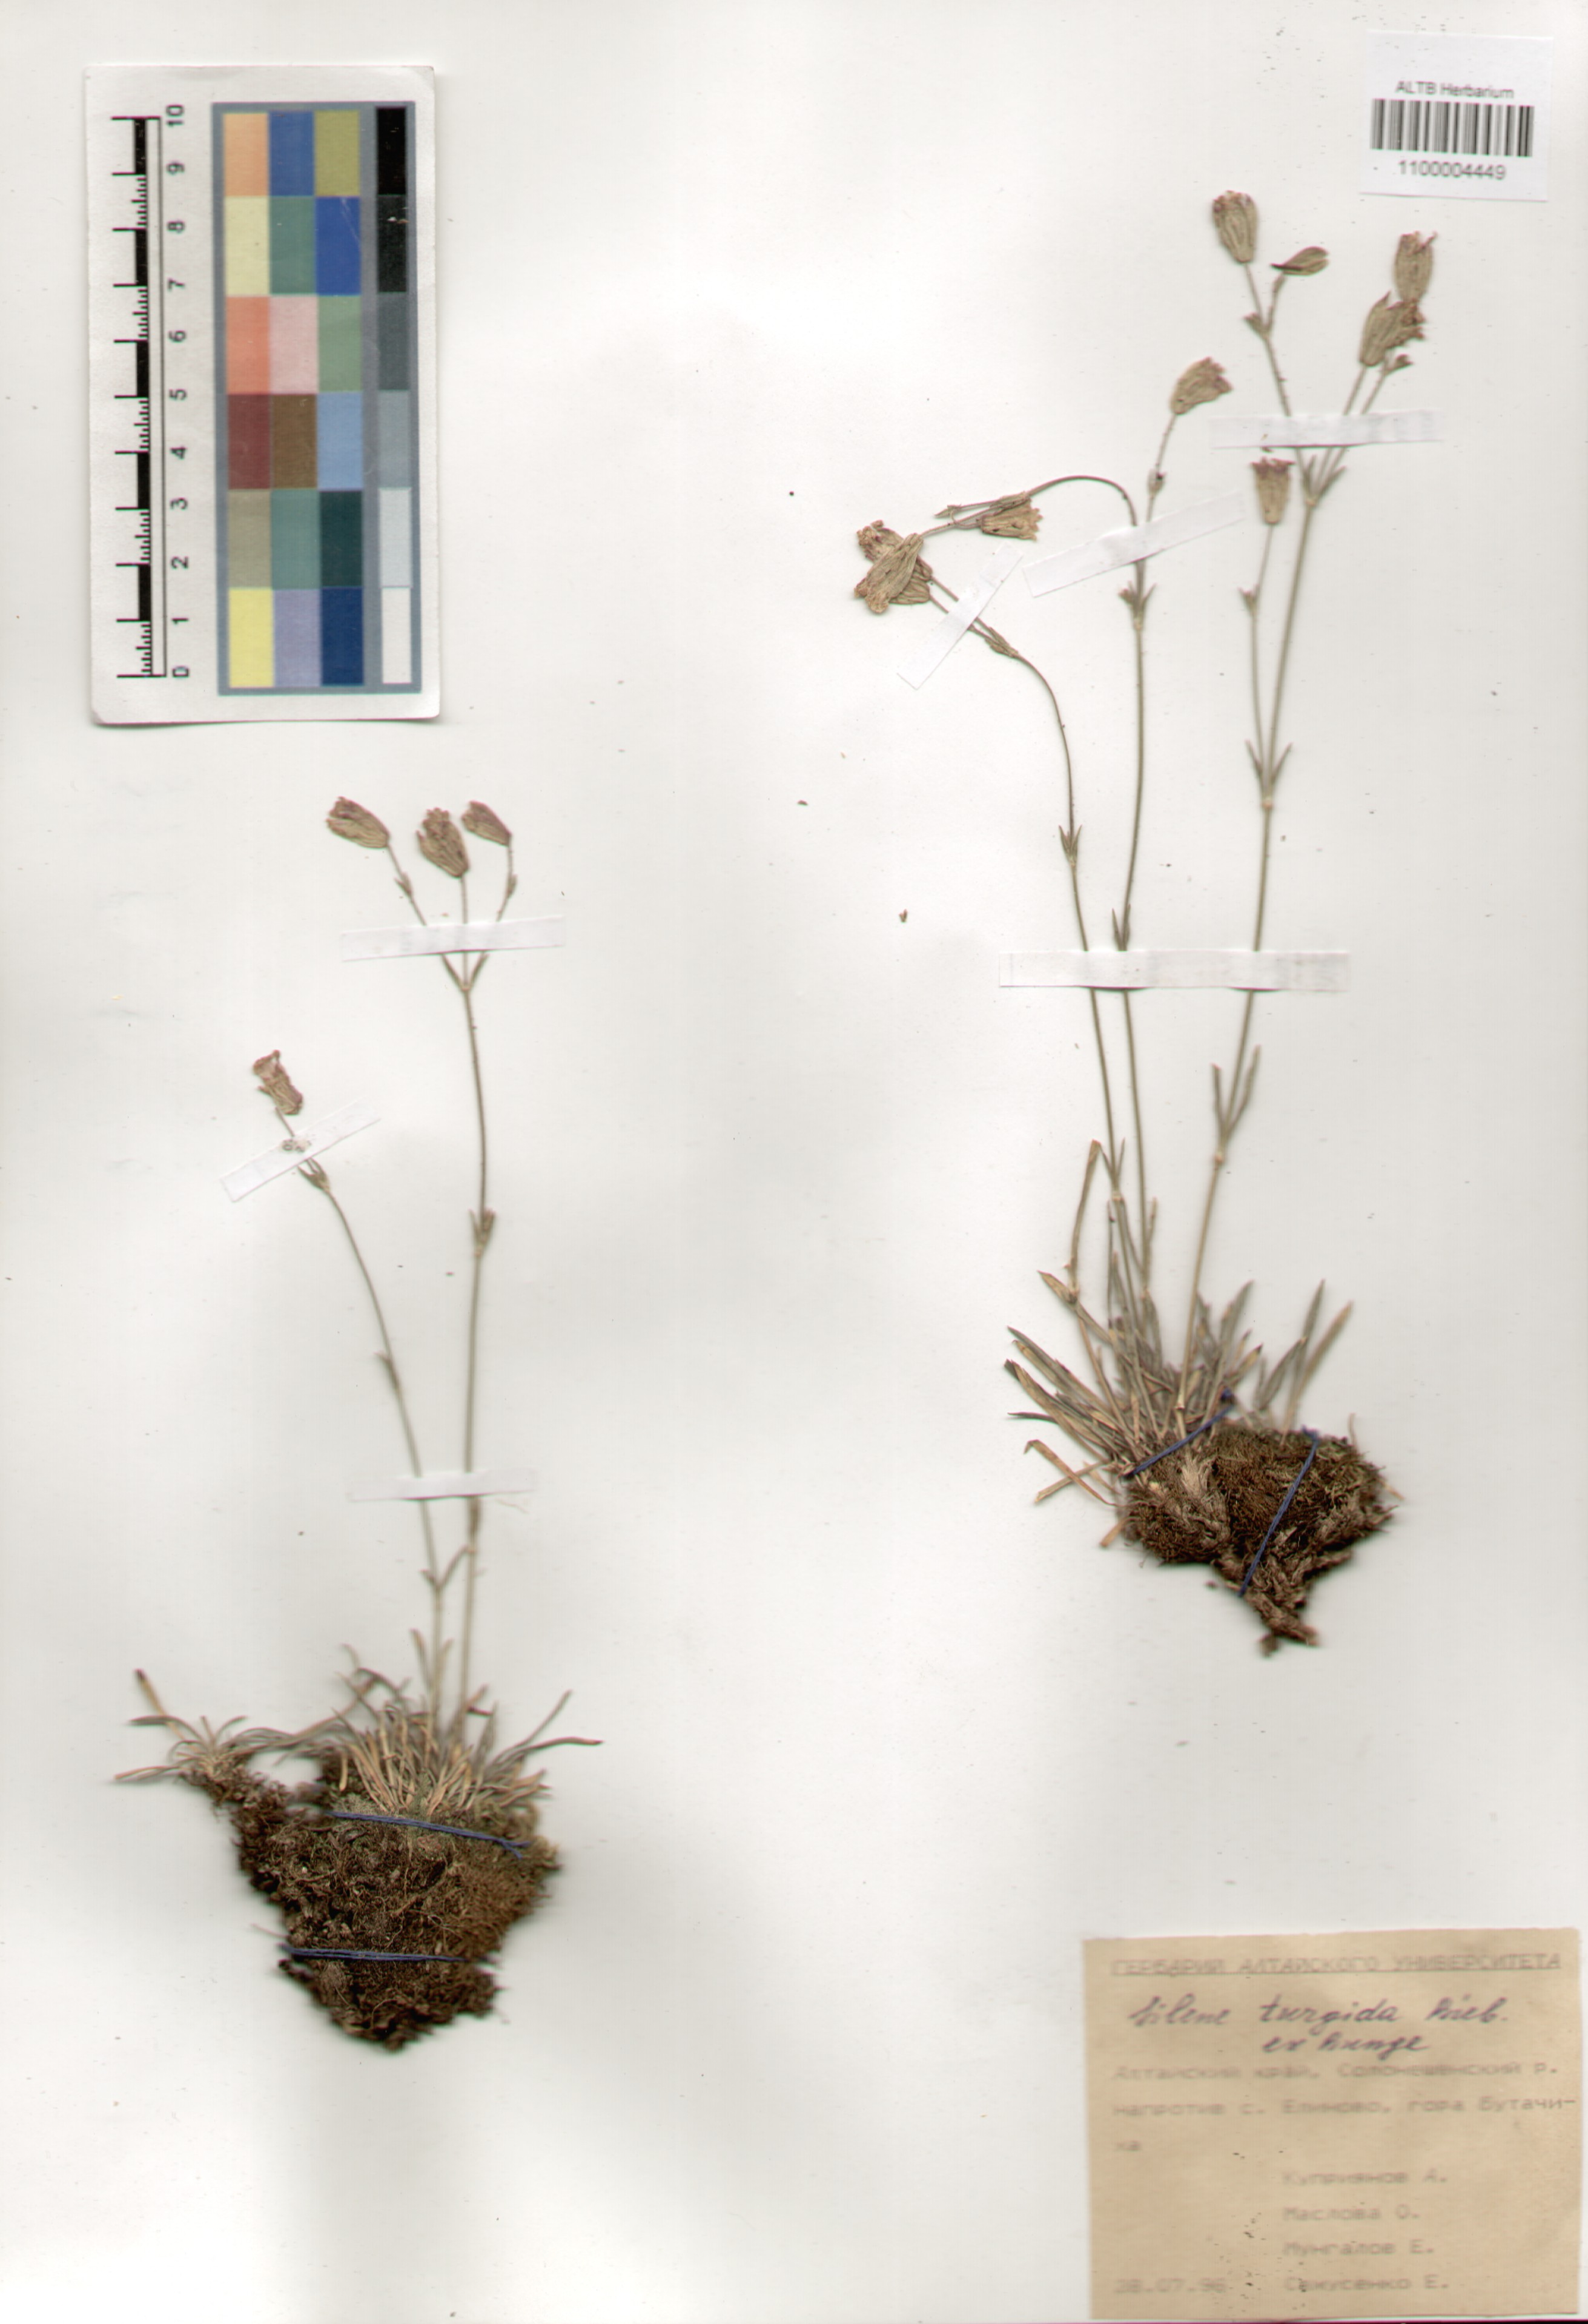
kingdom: Plantae
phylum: Tracheophyta
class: Magnoliopsida
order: Caryophyllales
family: Caryophyllaceae
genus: Silene
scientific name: Silene turgida
